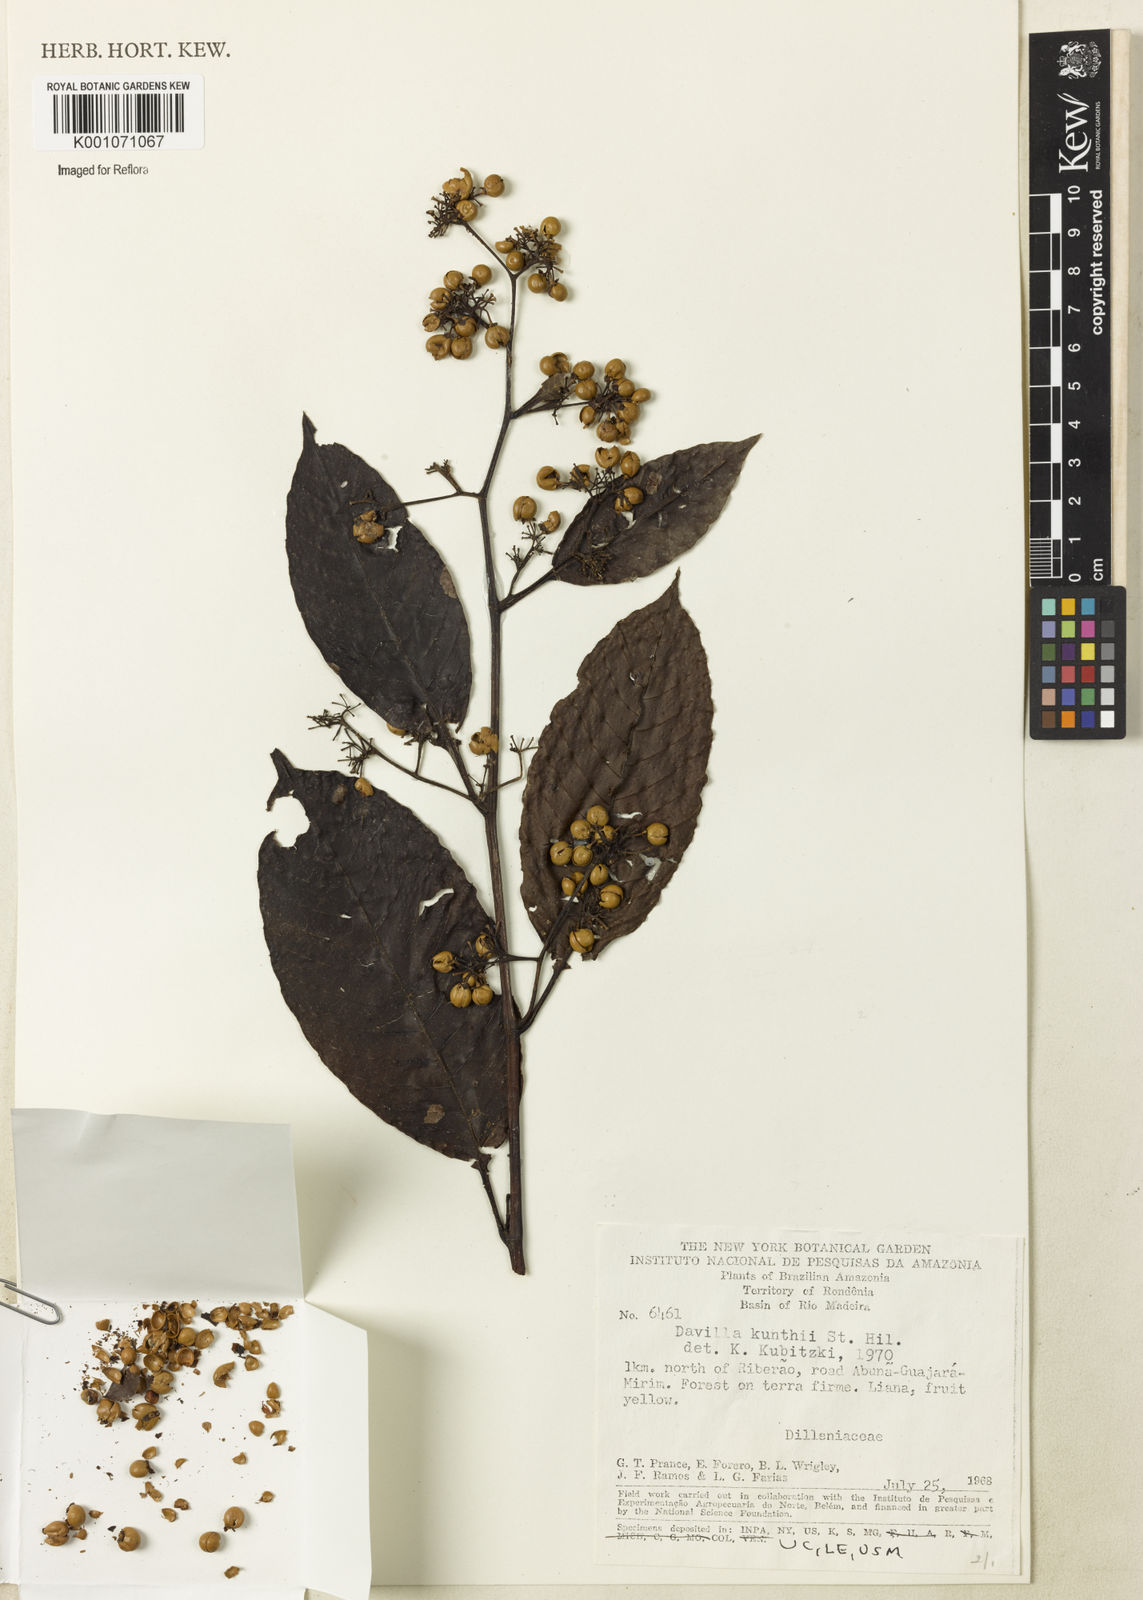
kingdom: Plantae
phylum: Tracheophyta
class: Magnoliopsida
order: Dilleniales
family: Dilleniaceae
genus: Davilla
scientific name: Davilla kunthii
